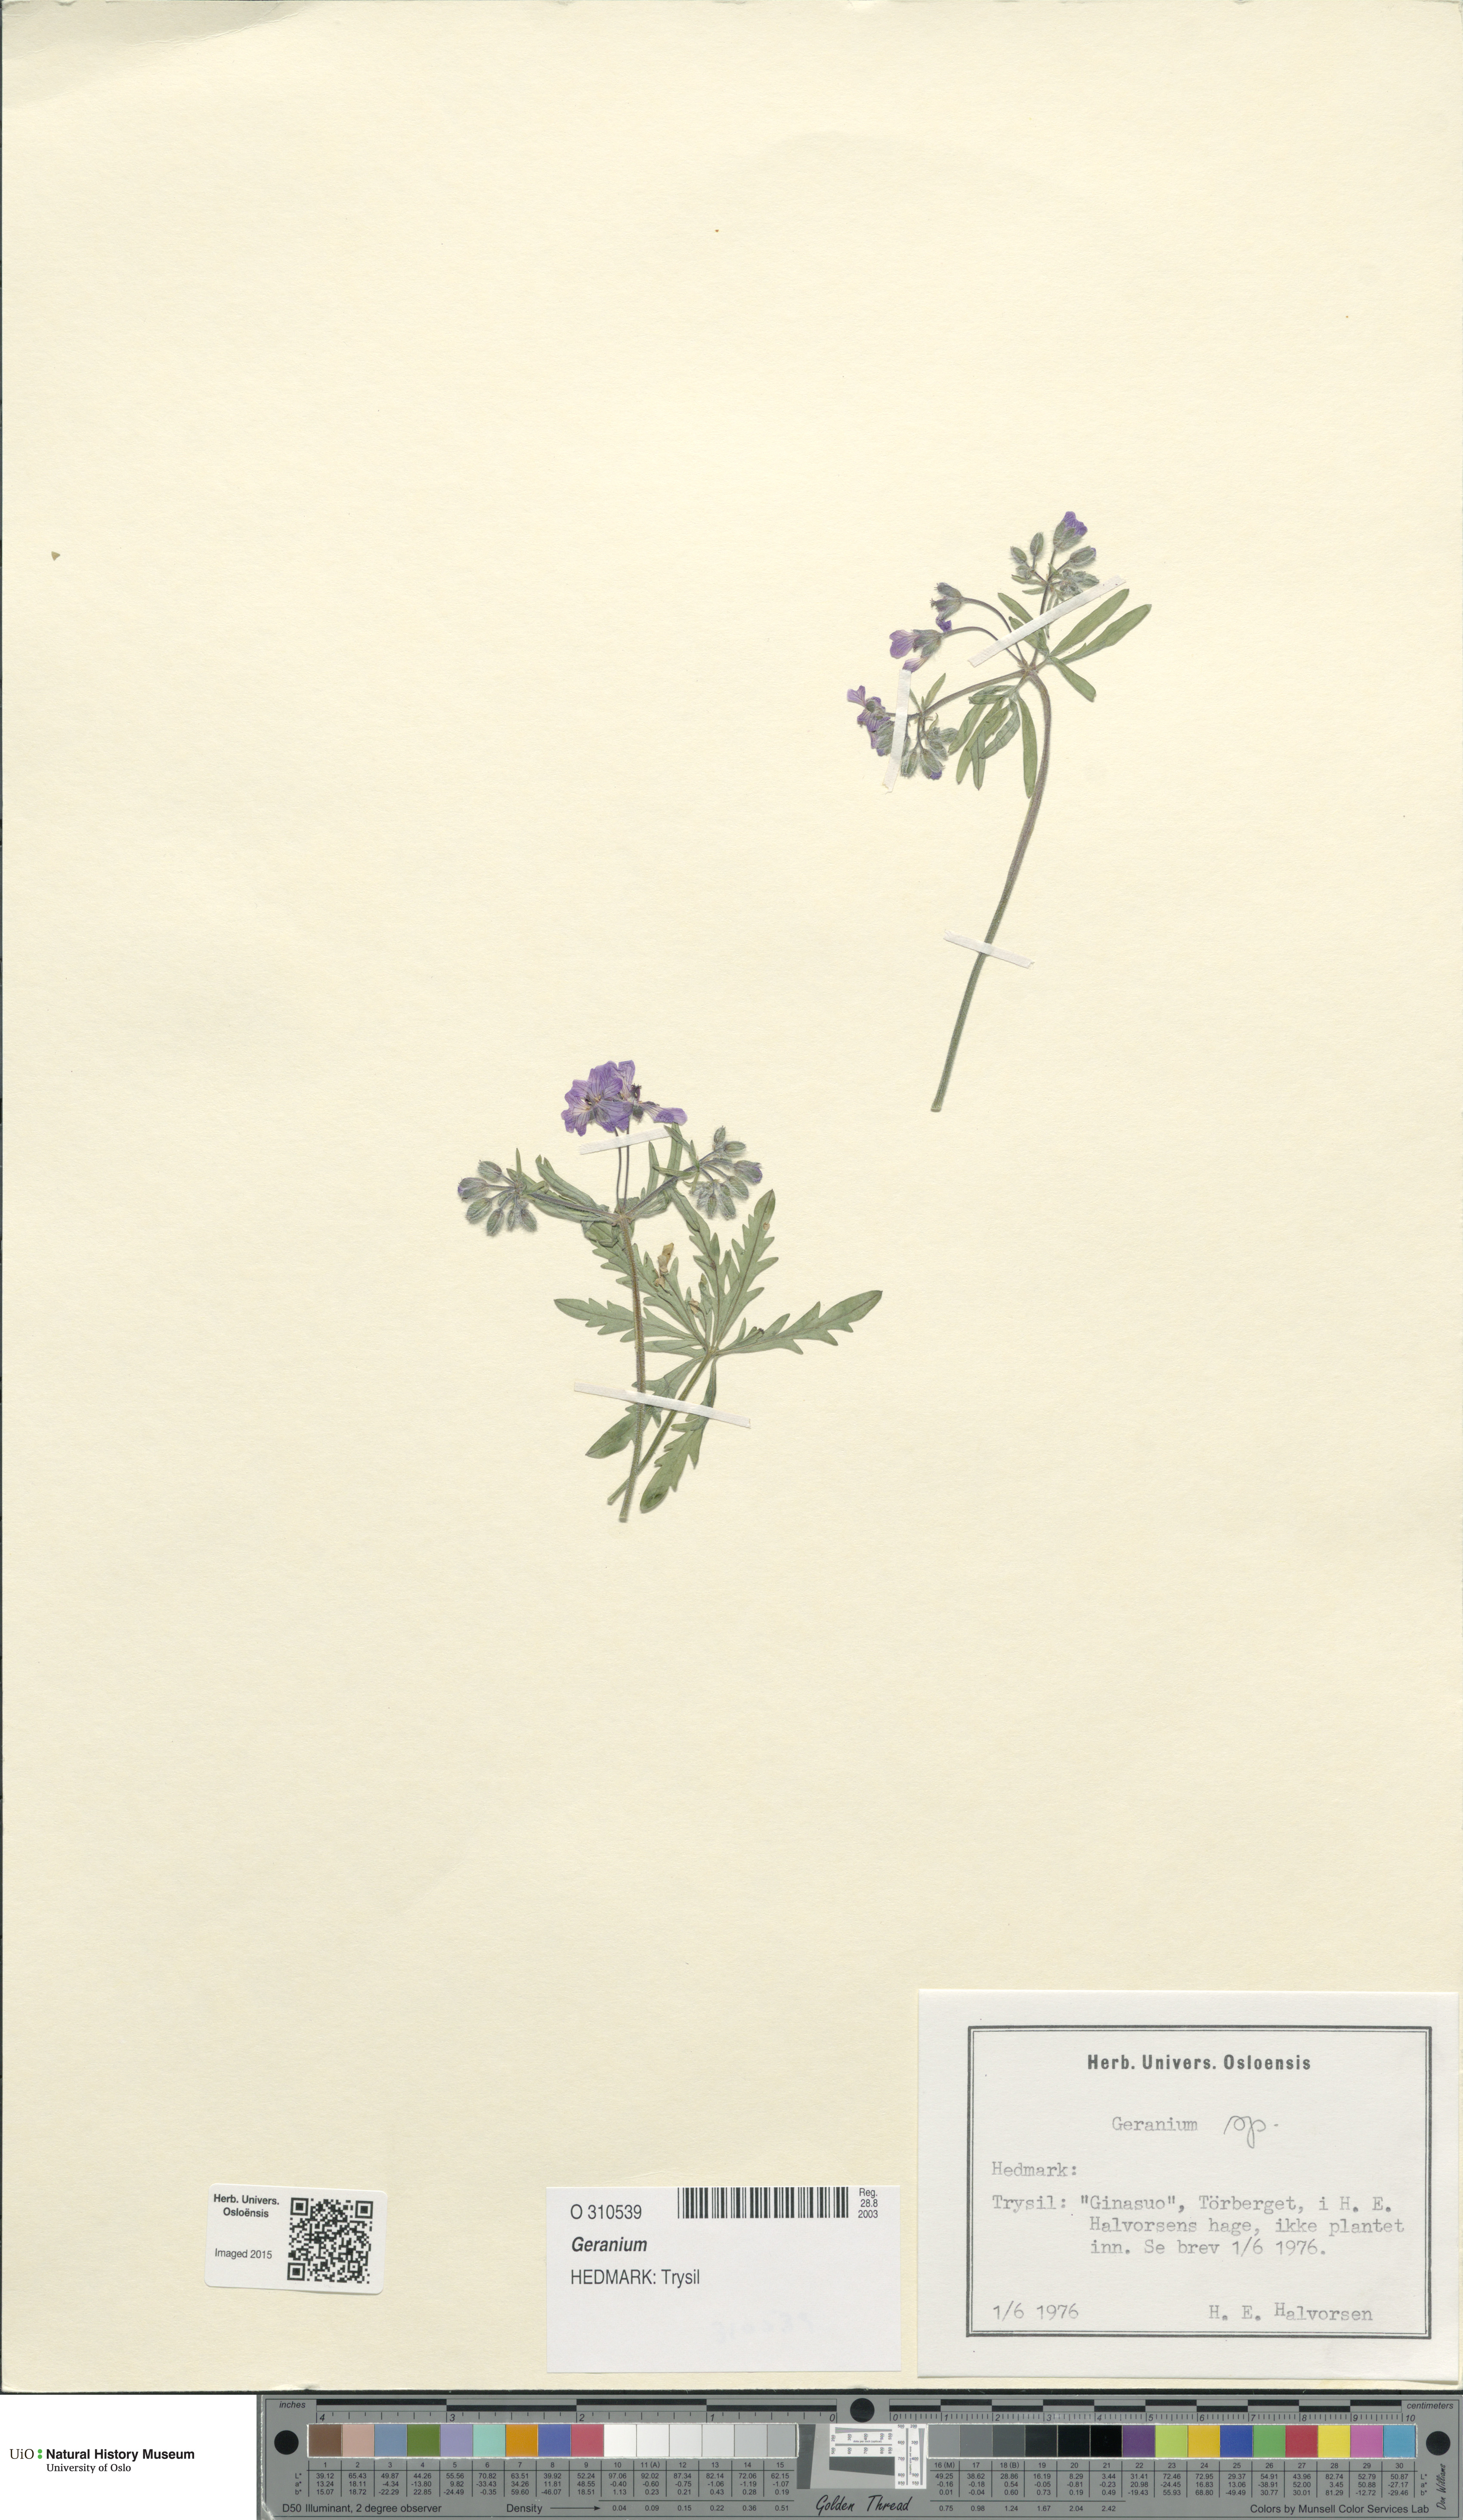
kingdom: Plantae
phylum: Tracheophyta
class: Magnoliopsida
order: Geraniales
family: Geraniaceae
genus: Geranium
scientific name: Geranium
